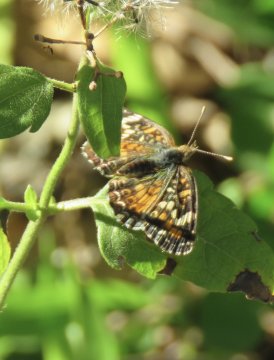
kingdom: Animalia
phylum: Arthropoda
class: Insecta
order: Lepidoptera
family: Nymphalidae
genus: Phyciodes
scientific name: Phyciodes phaon
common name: Phaon Crescent
